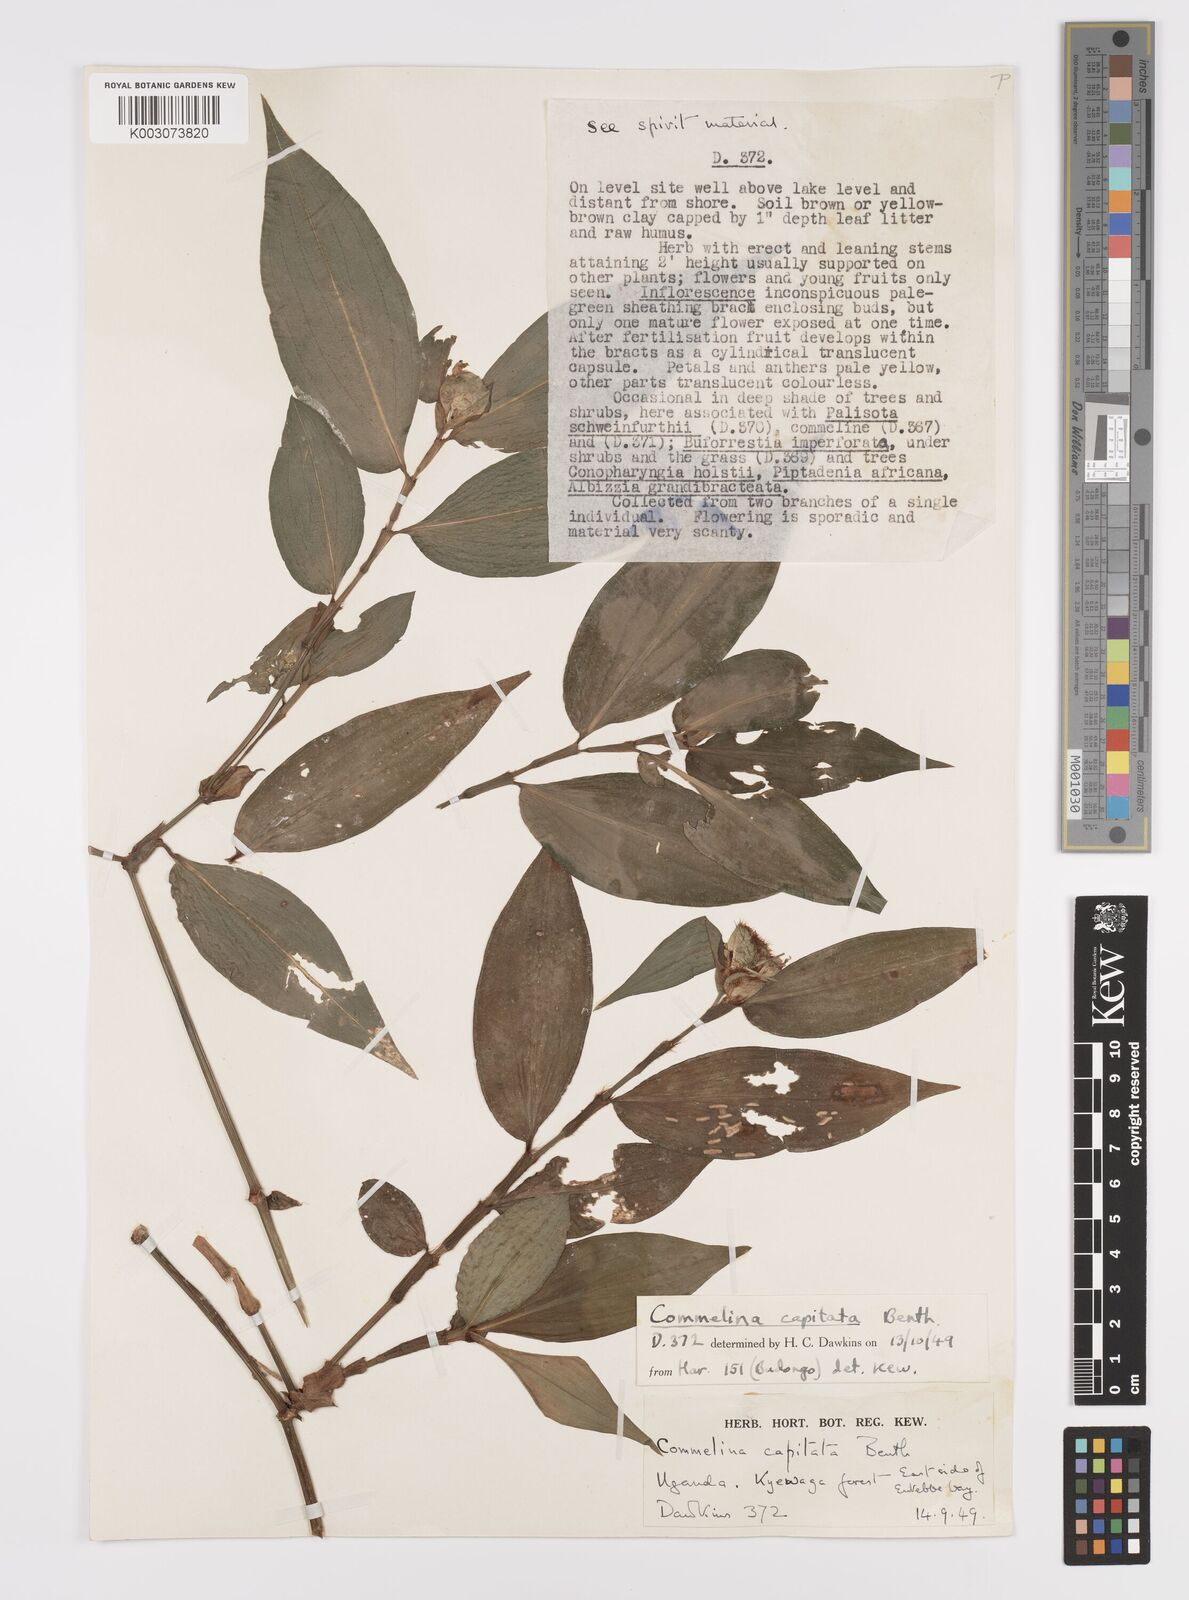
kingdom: Plantae
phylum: Tracheophyta
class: Liliopsida
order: Commelinales
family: Commelinaceae
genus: Commelina
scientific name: Commelina capitata
